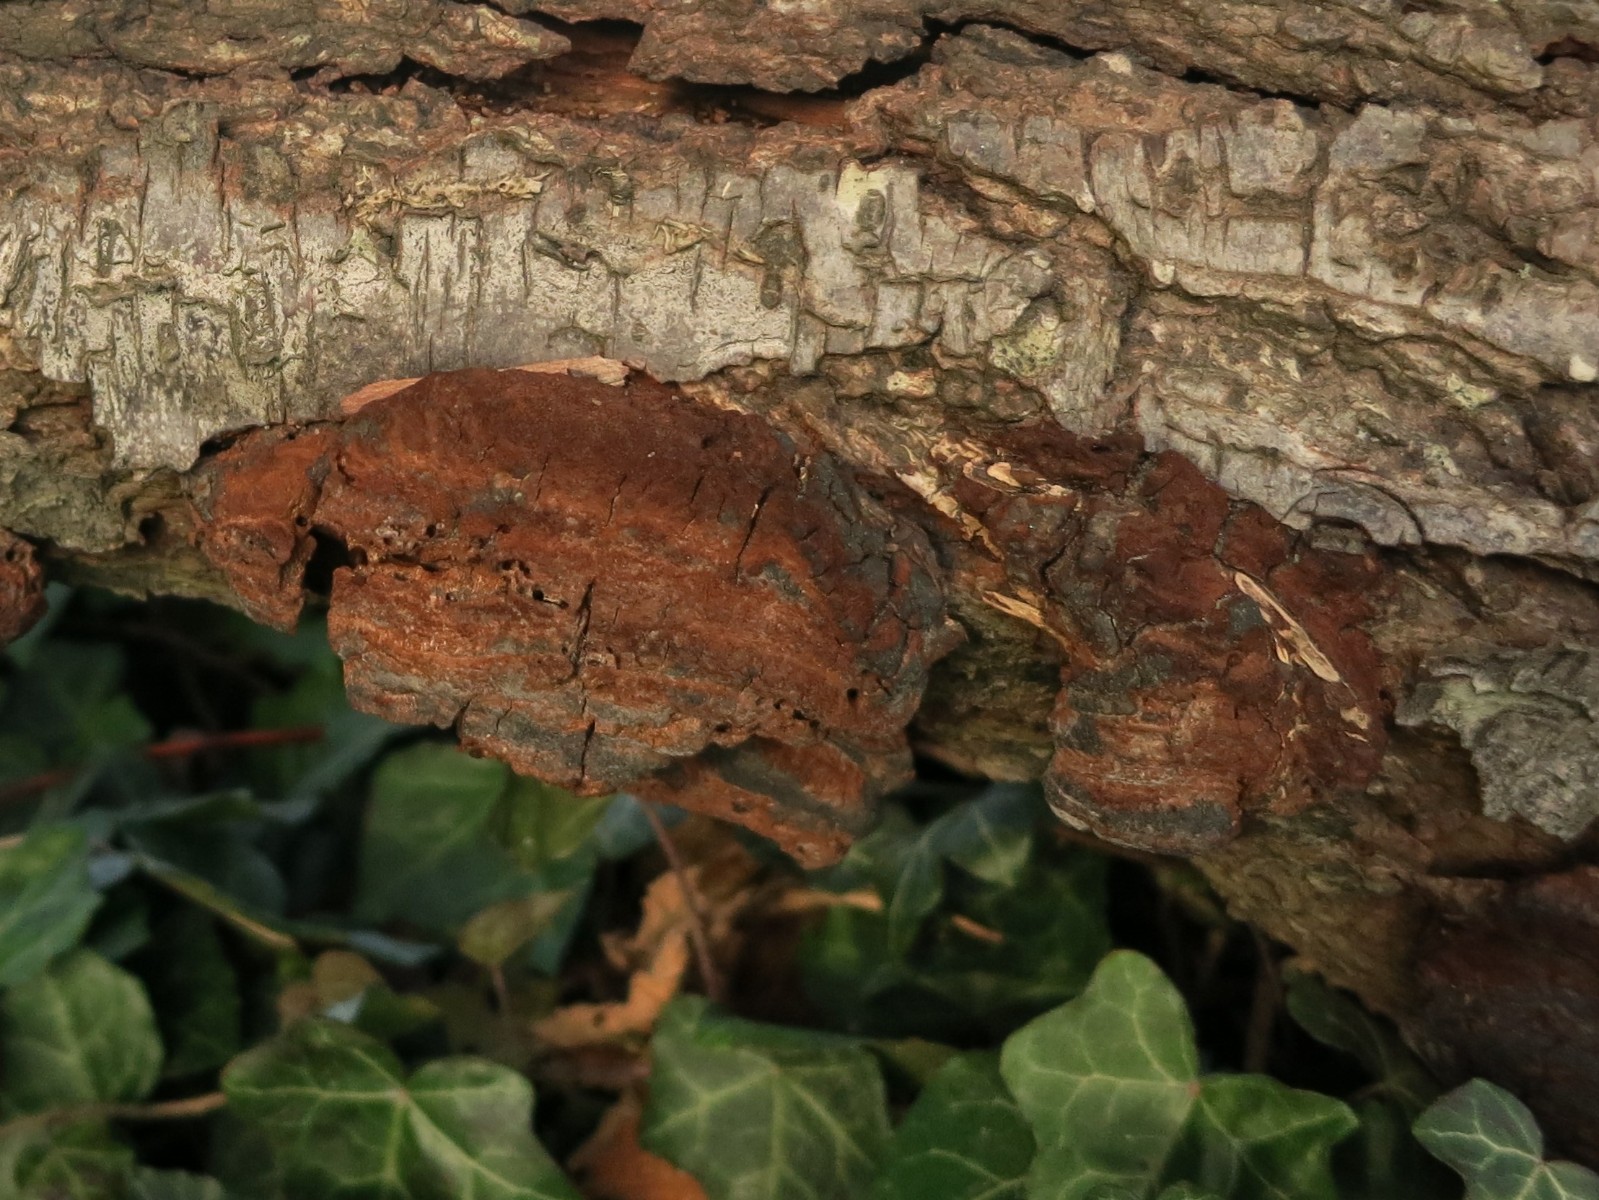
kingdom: Fungi
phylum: Basidiomycota
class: Agaricomycetes
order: Hymenochaetales
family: Hymenochaetaceae
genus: Phellinus
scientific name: Phellinus pomaceus
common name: blomme-ildporesvamp
